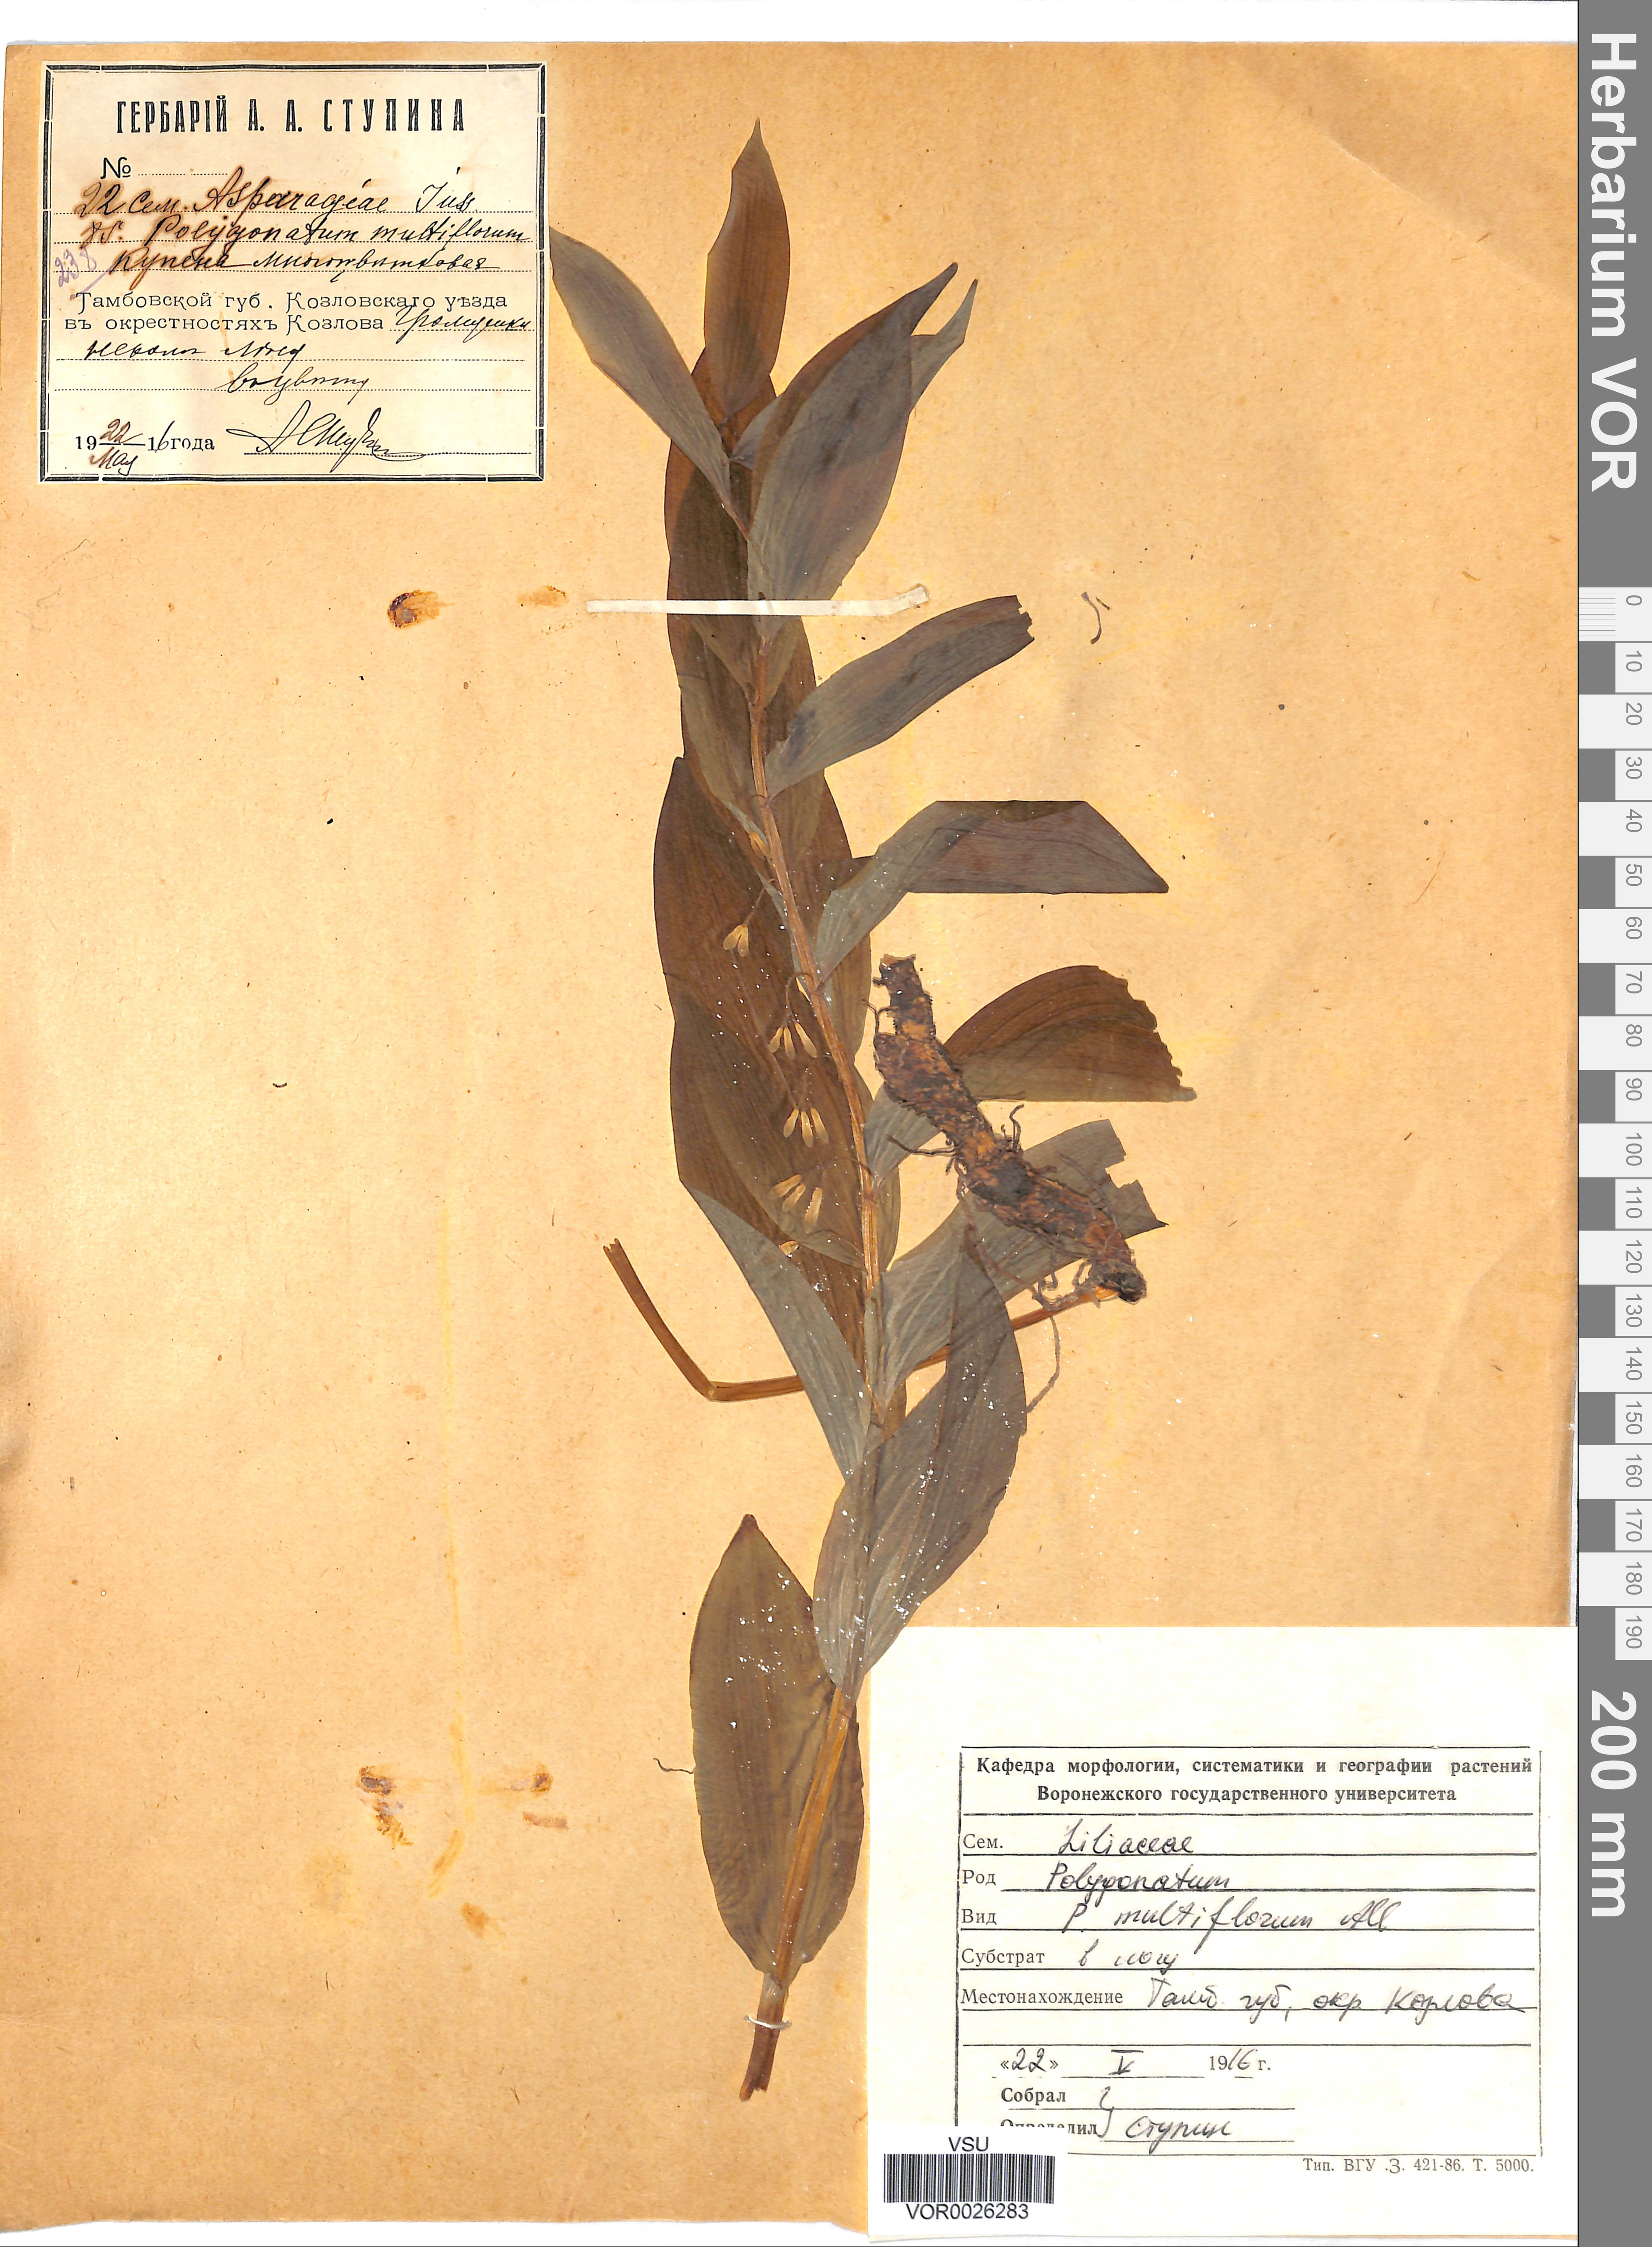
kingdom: Plantae
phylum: Tracheophyta
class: Liliopsida
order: Asparagales
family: Asparagaceae
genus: Polygonatum
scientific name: Polygonatum multiflorum
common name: Solomon's-seal
